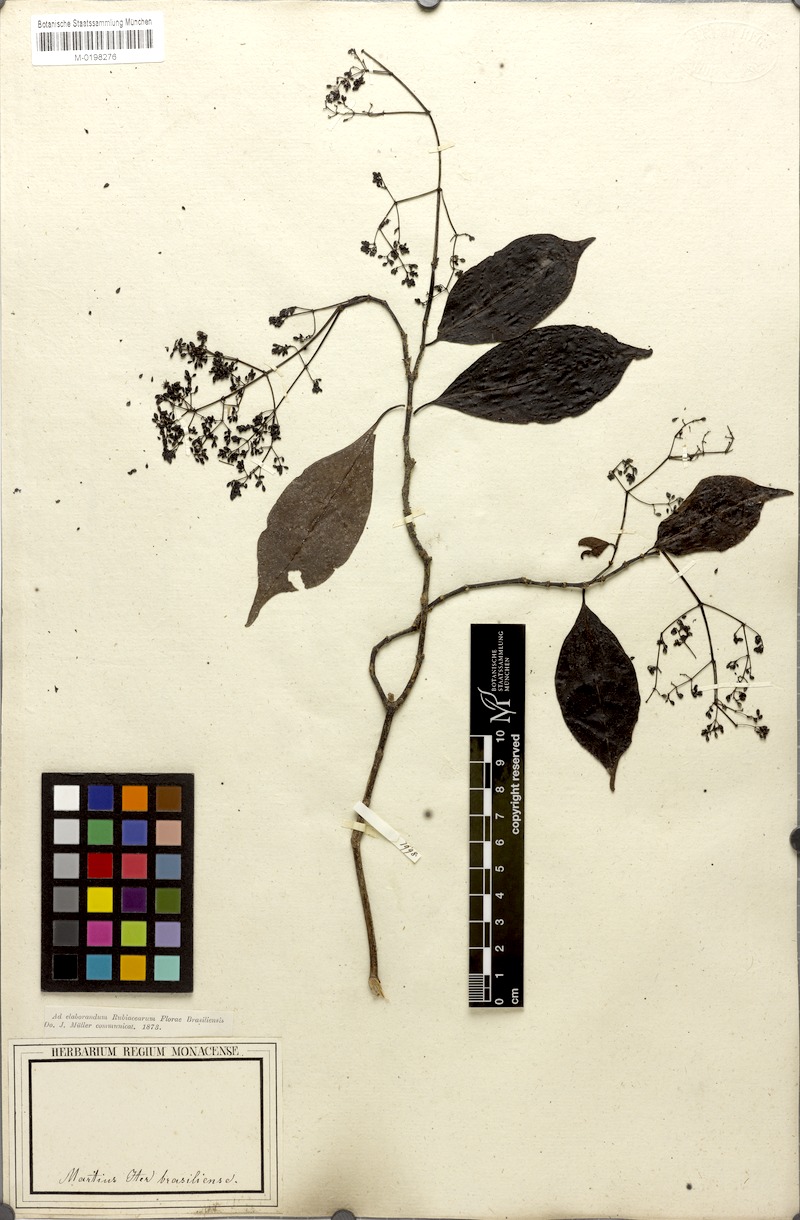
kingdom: Plantae
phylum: Tracheophyta
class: Magnoliopsida
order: Gentianales
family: Rubiaceae
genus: Psychotria
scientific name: Psychotria formosa
